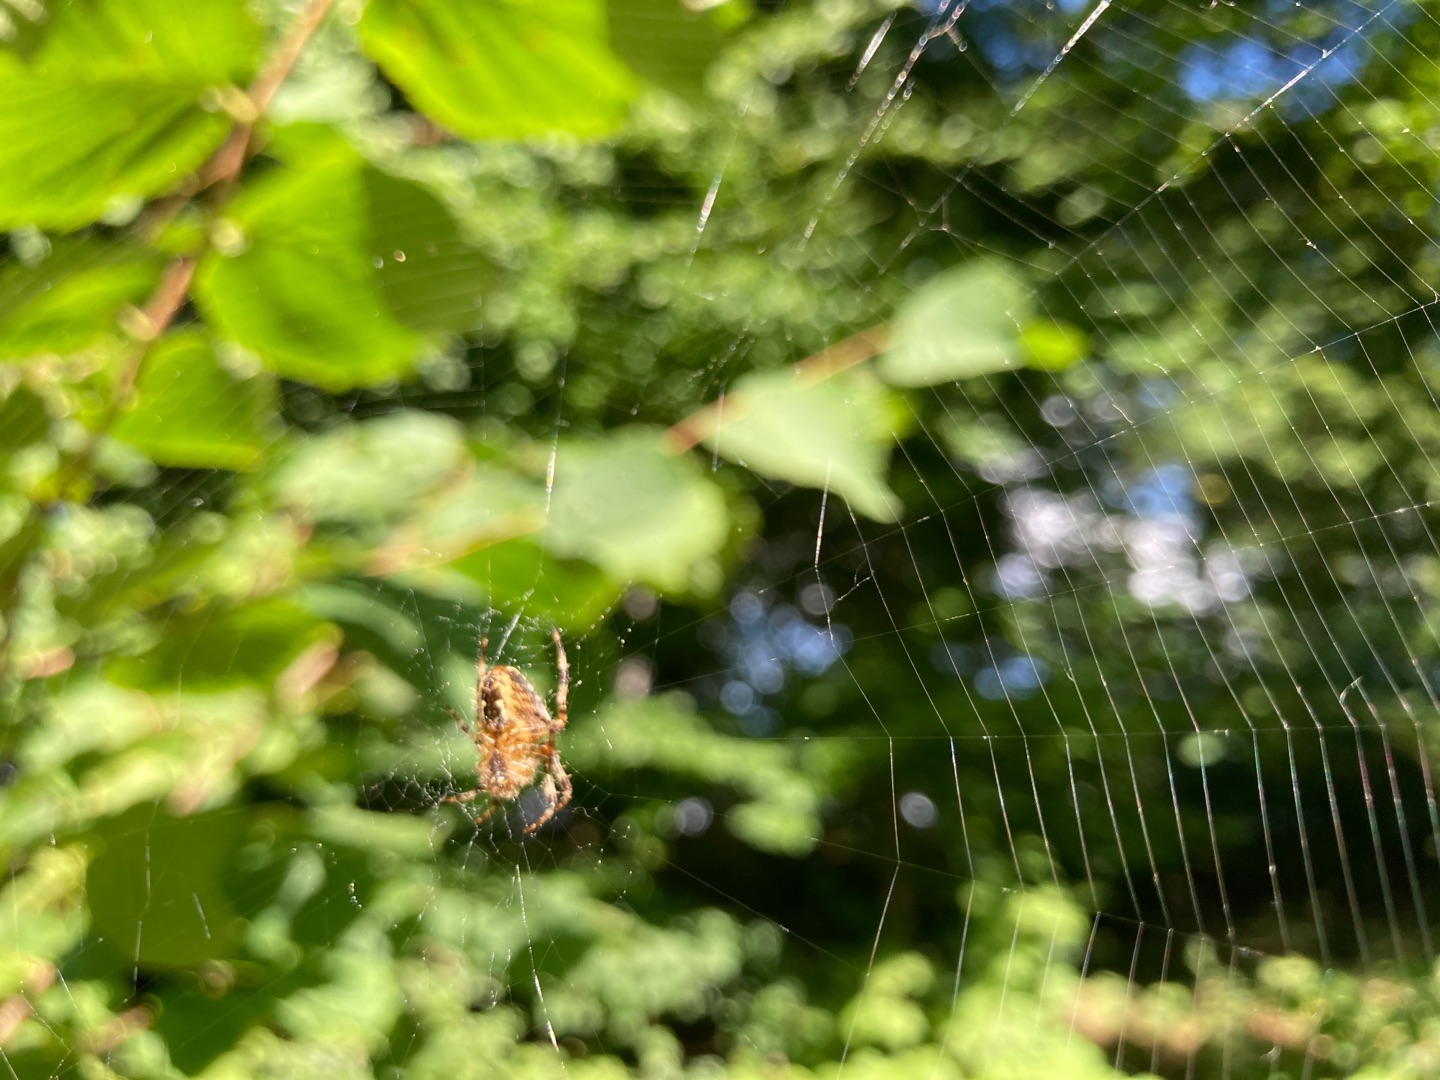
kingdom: Animalia
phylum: Arthropoda
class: Arachnida
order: Araneae
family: Araneidae
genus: Araneus
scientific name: Araneus diadematus
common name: Korsedderkop
